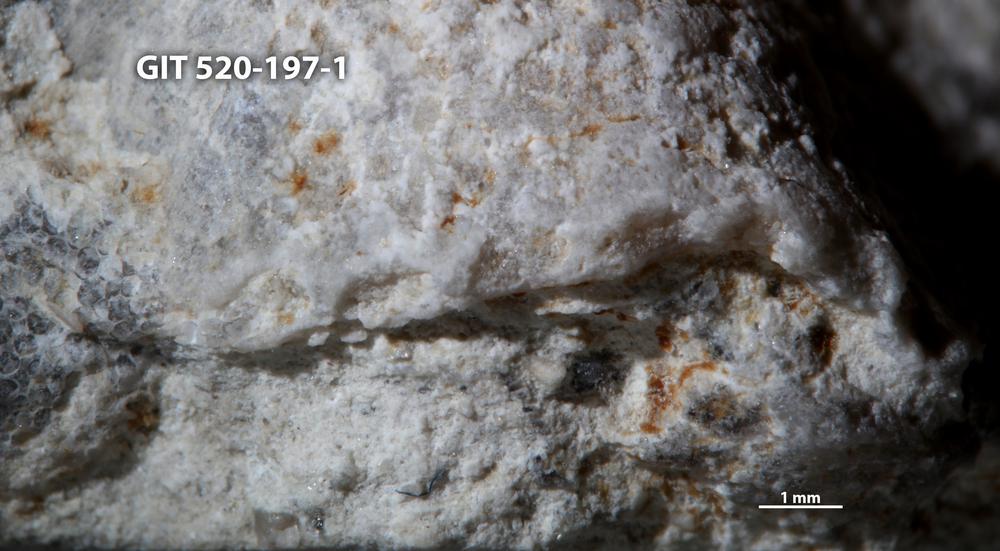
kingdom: Animalia
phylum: Cnidaria
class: Anthozoa
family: Cateniporidae
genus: Catenipora
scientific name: Catenipora
